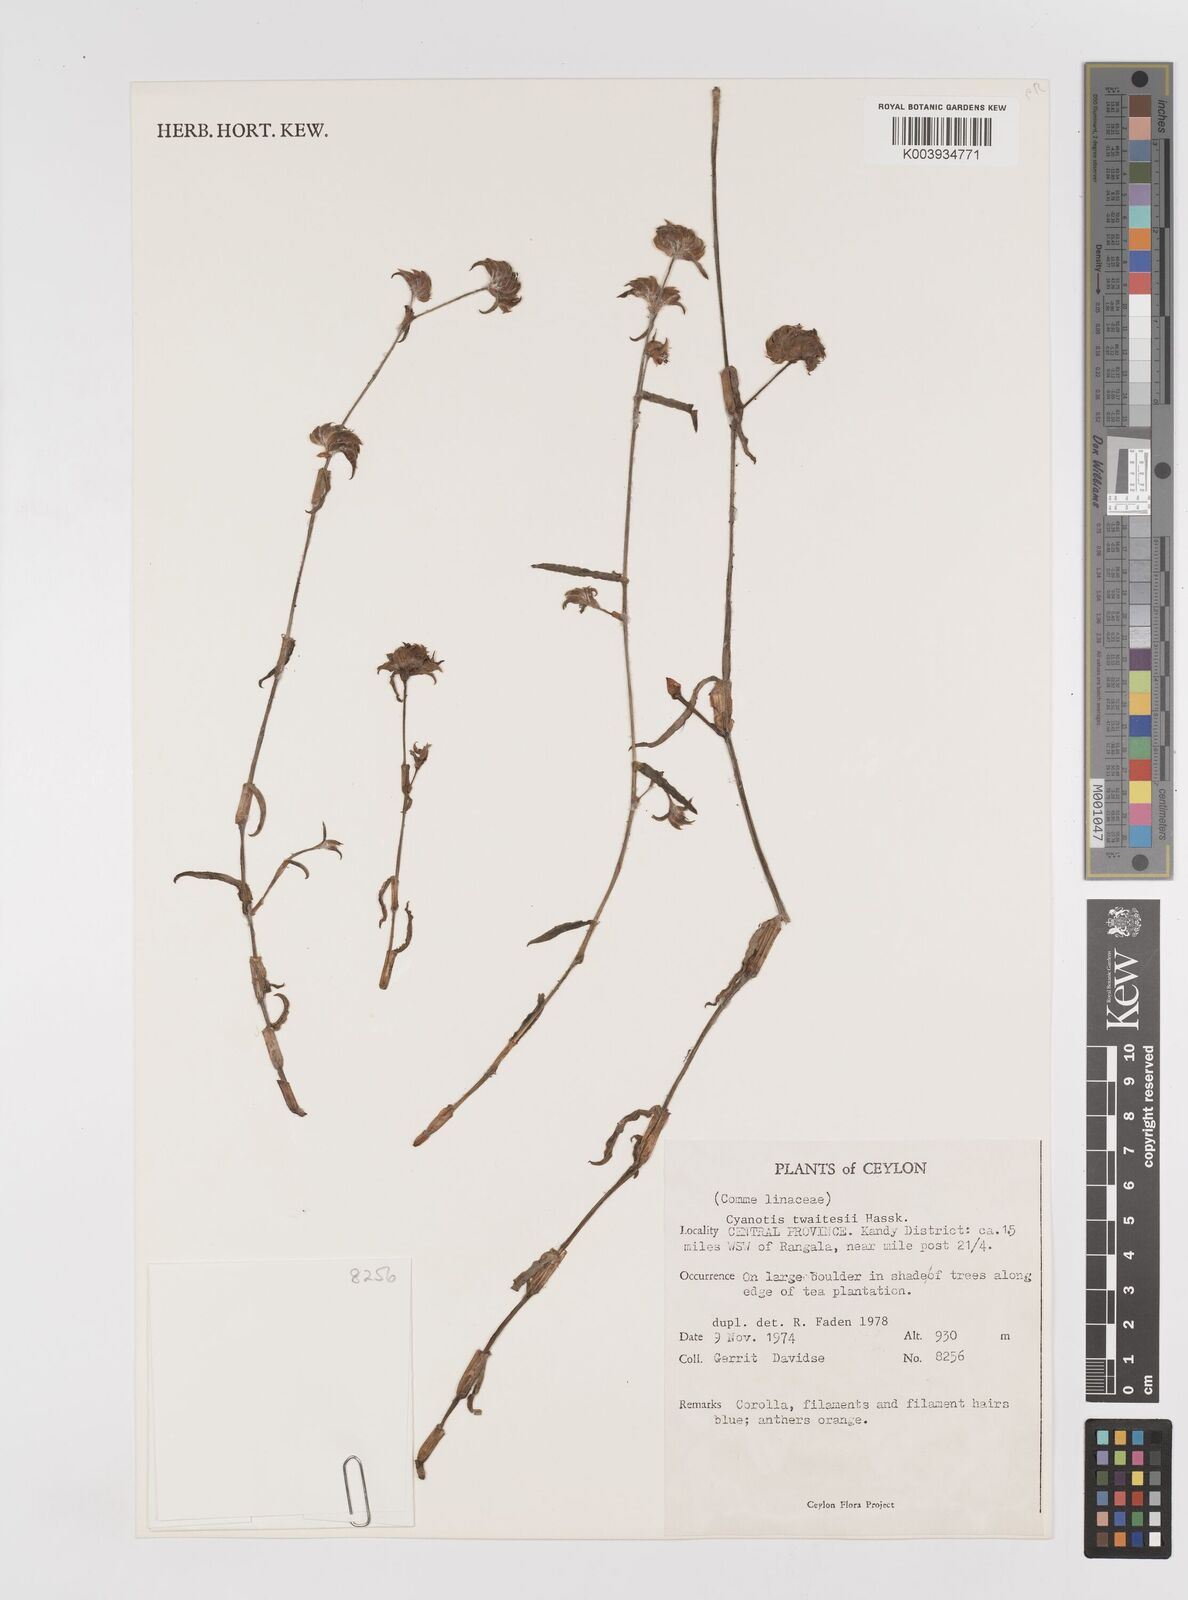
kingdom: Plantae
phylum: Tracheophyta
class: Liliopsida
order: Commelinales
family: Commelinaceae
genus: Cyanotis
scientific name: Cyanotis fasciculata
